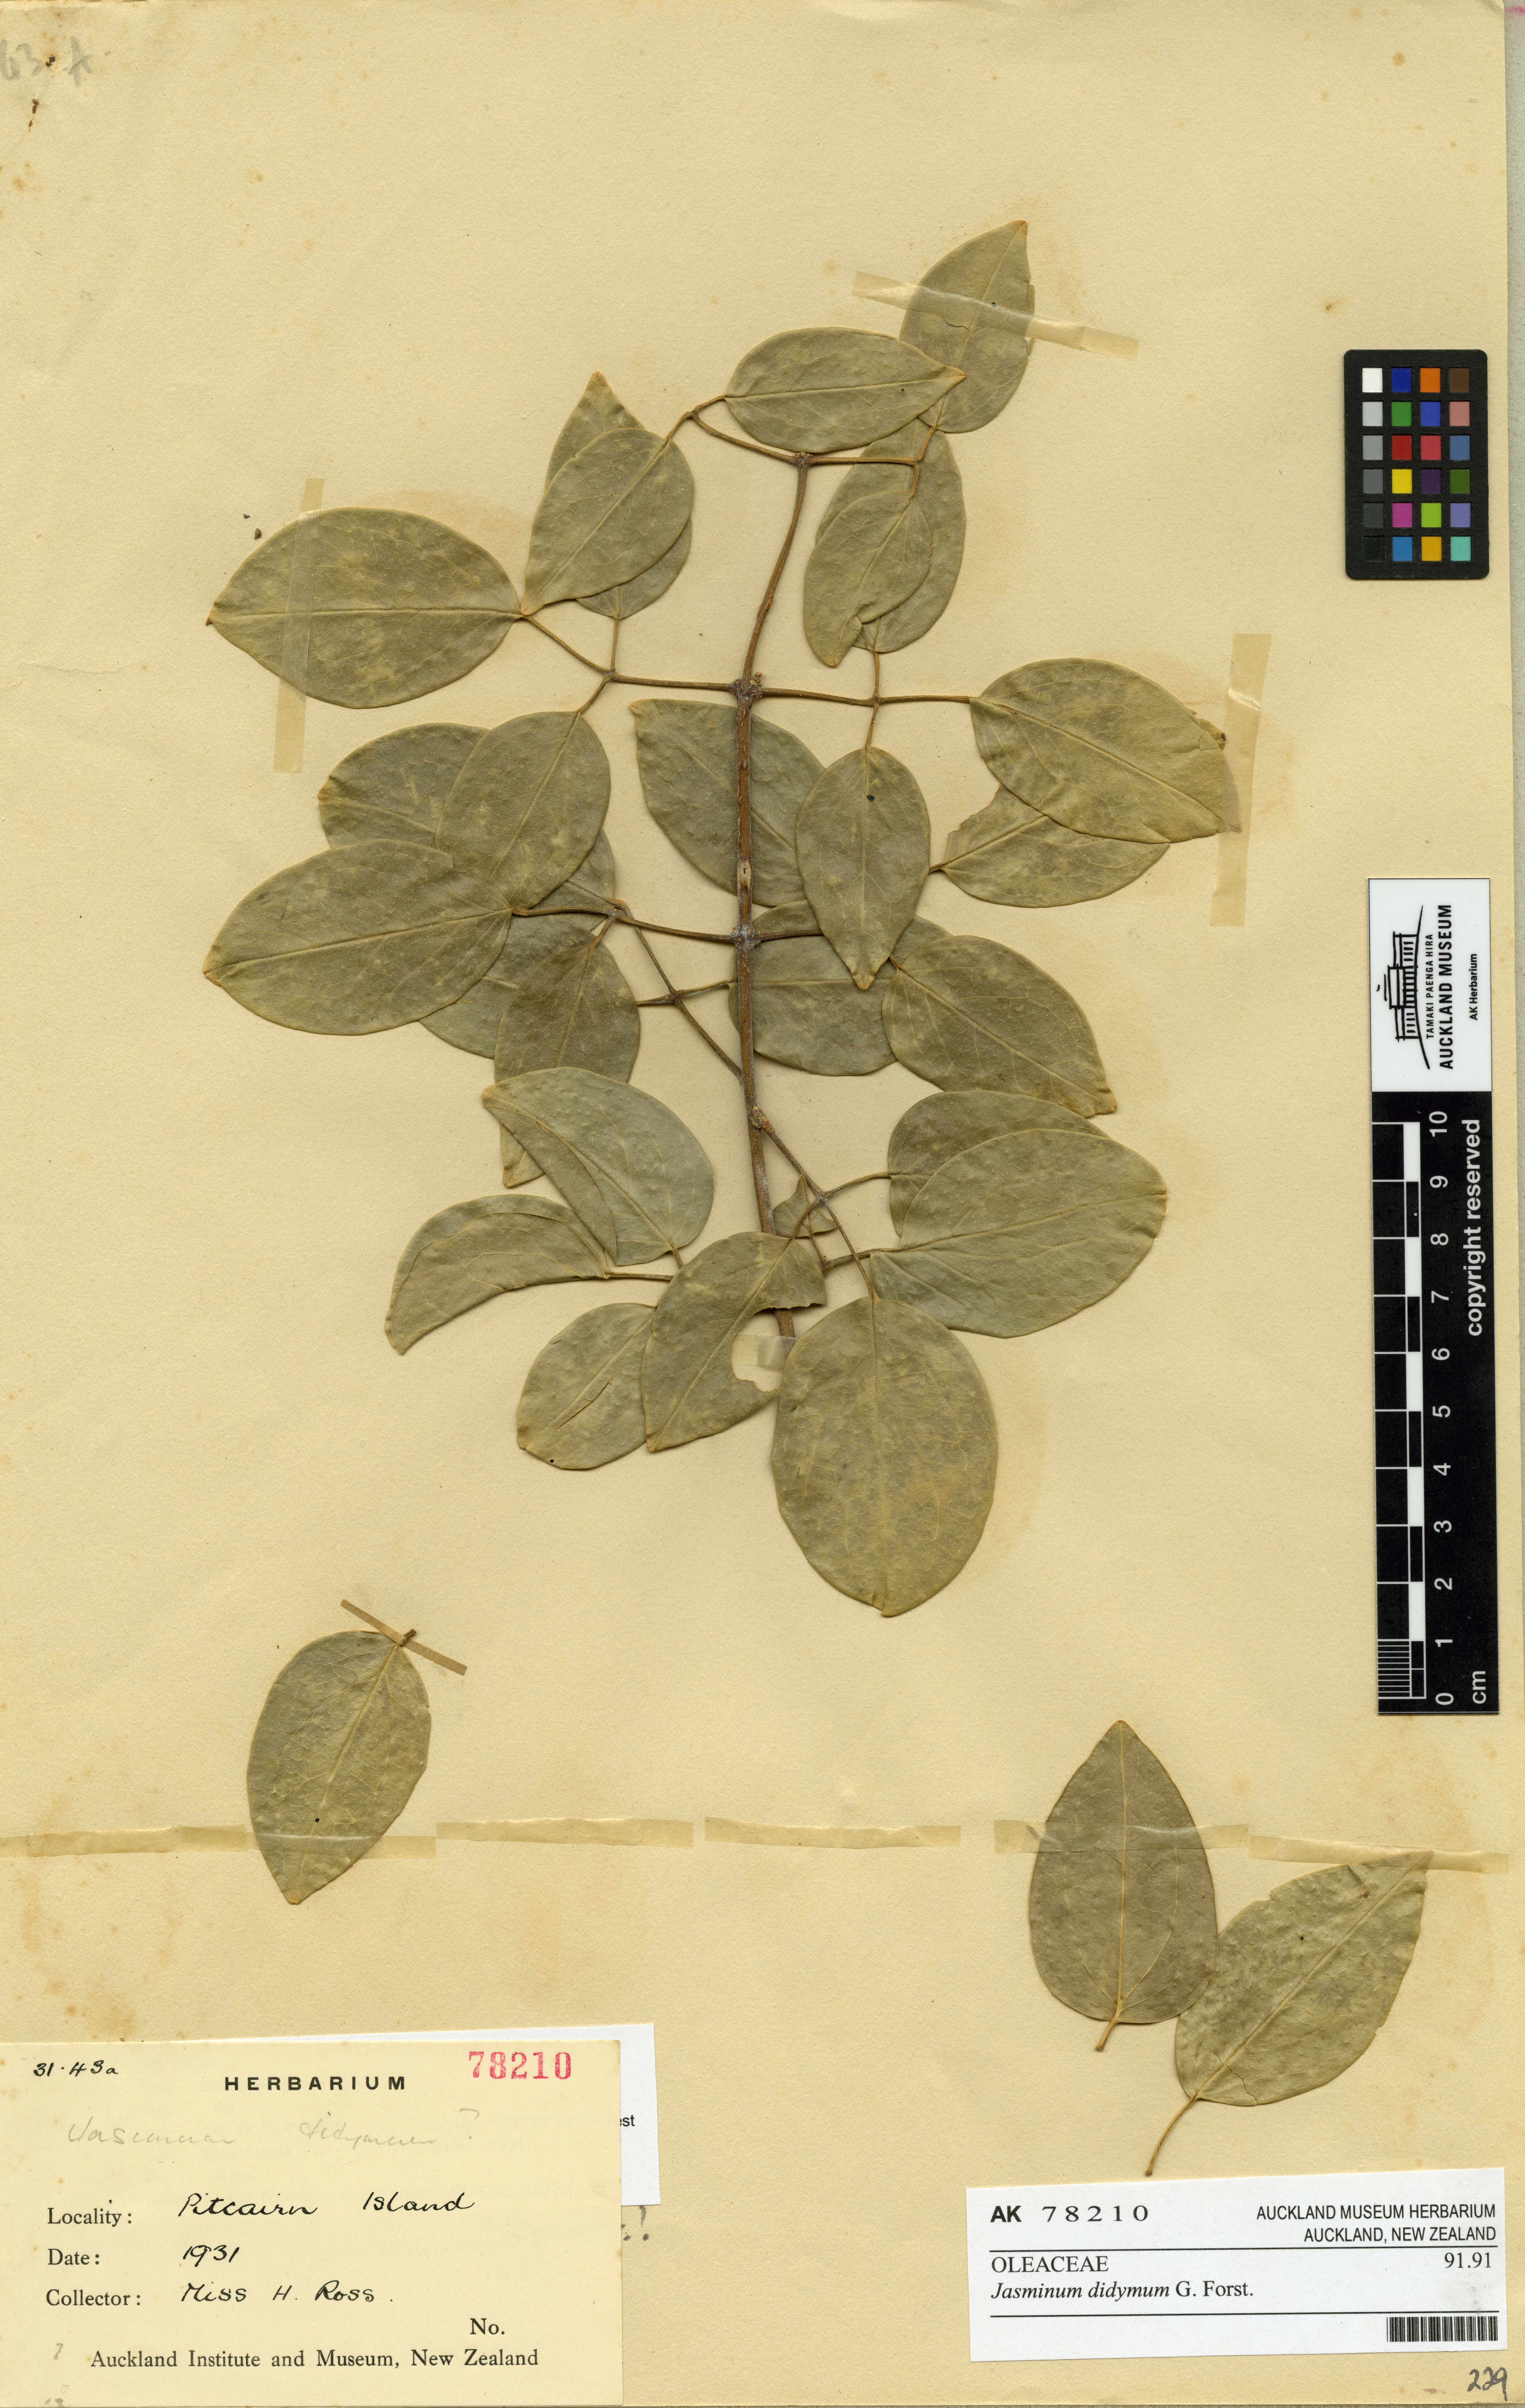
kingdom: Plantae
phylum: Tracheophyta
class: Magnoliopsida
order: Lamiales
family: Oleaceae
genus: Jasminum
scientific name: Jasminum didymum
